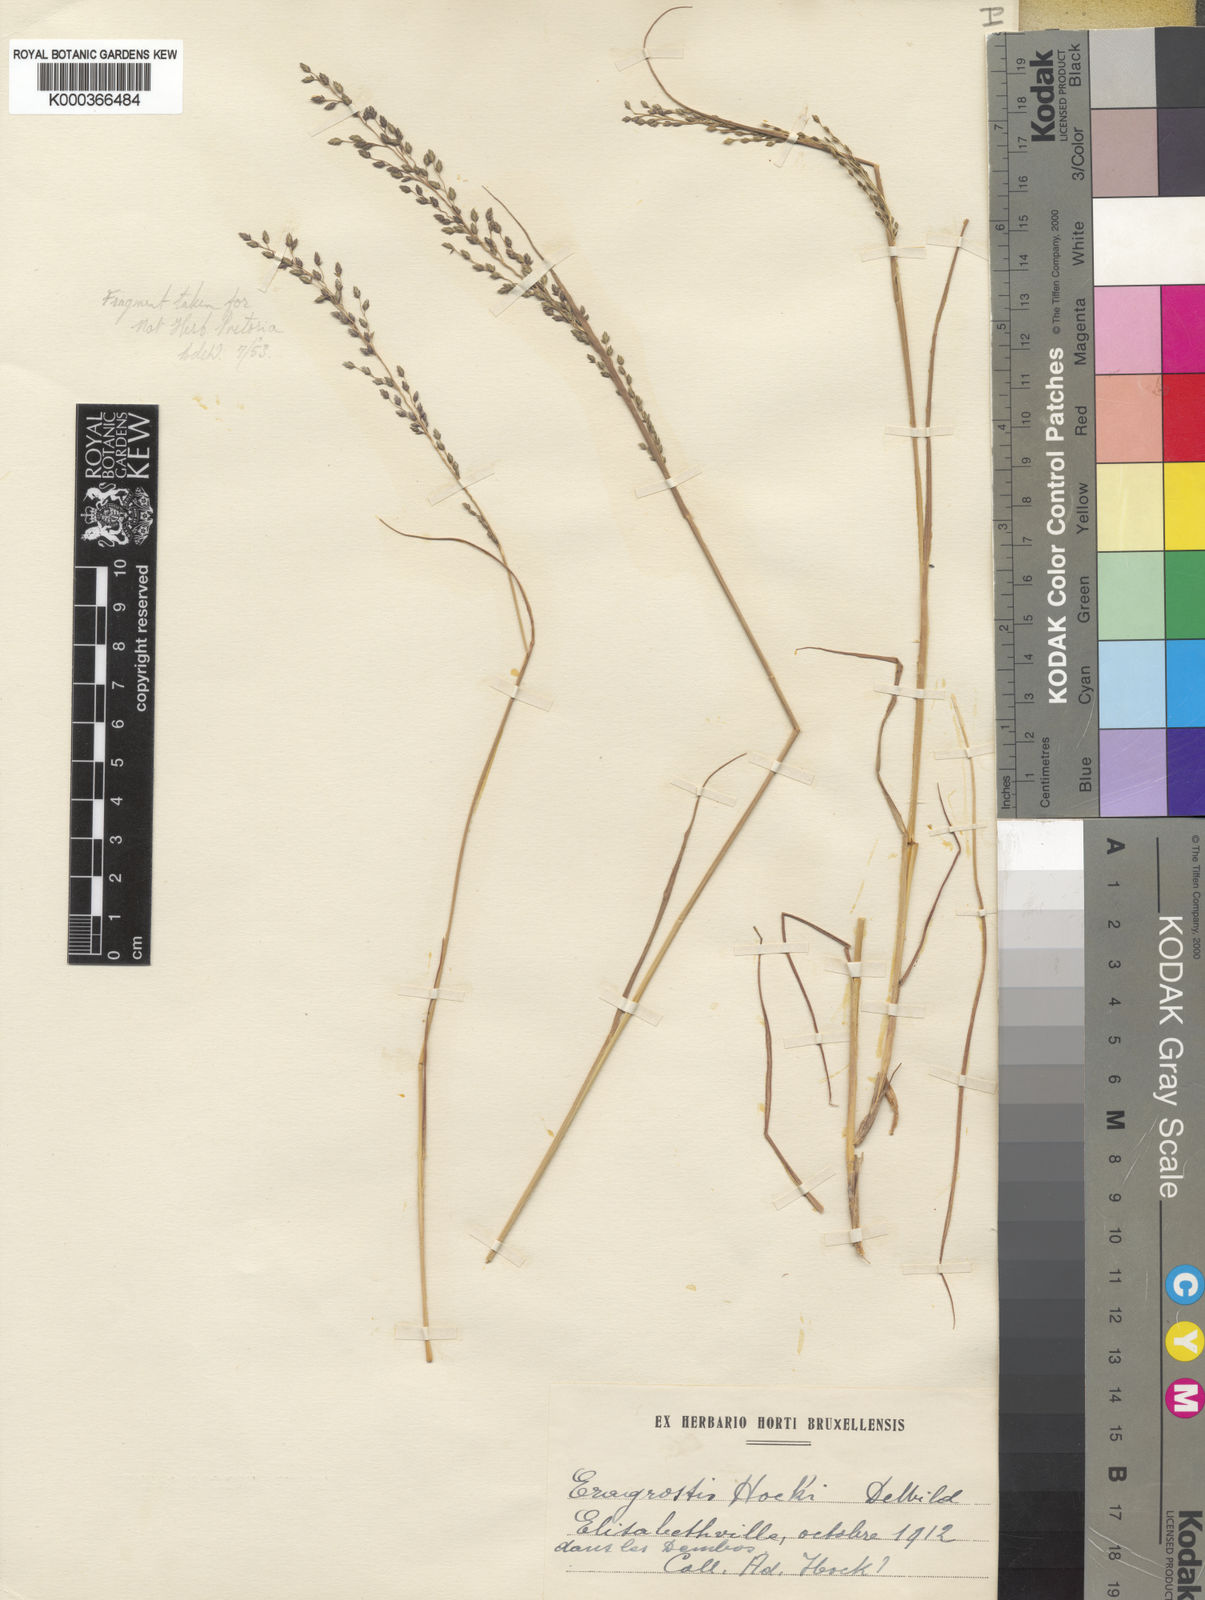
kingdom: Plantae
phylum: Tracheophyta
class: Liliopsida
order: Poales
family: Poaceae
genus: Eragrostis
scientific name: Eragrostis racemosa
